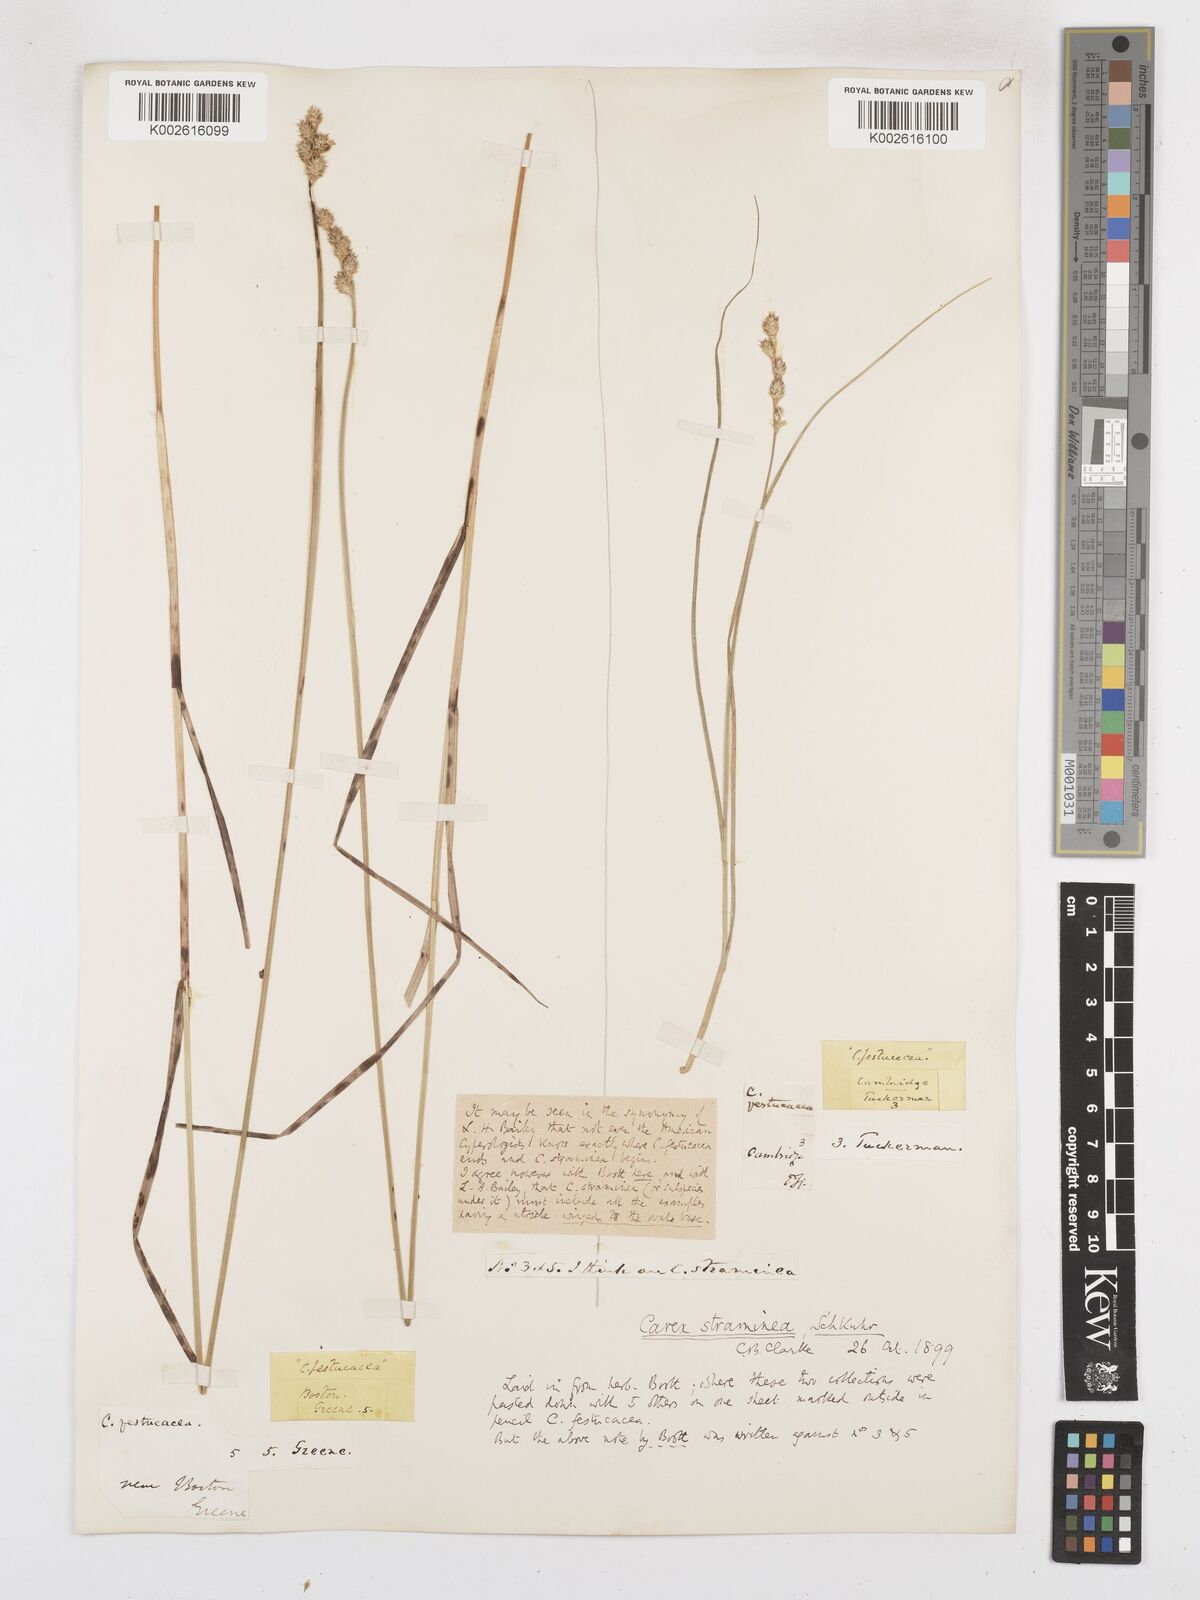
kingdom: Plantae
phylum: Tracheophyta
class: Liliopsida
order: Poales
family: Cyperaceae
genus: Carex
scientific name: Carex brevior
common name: Brevior sedge
